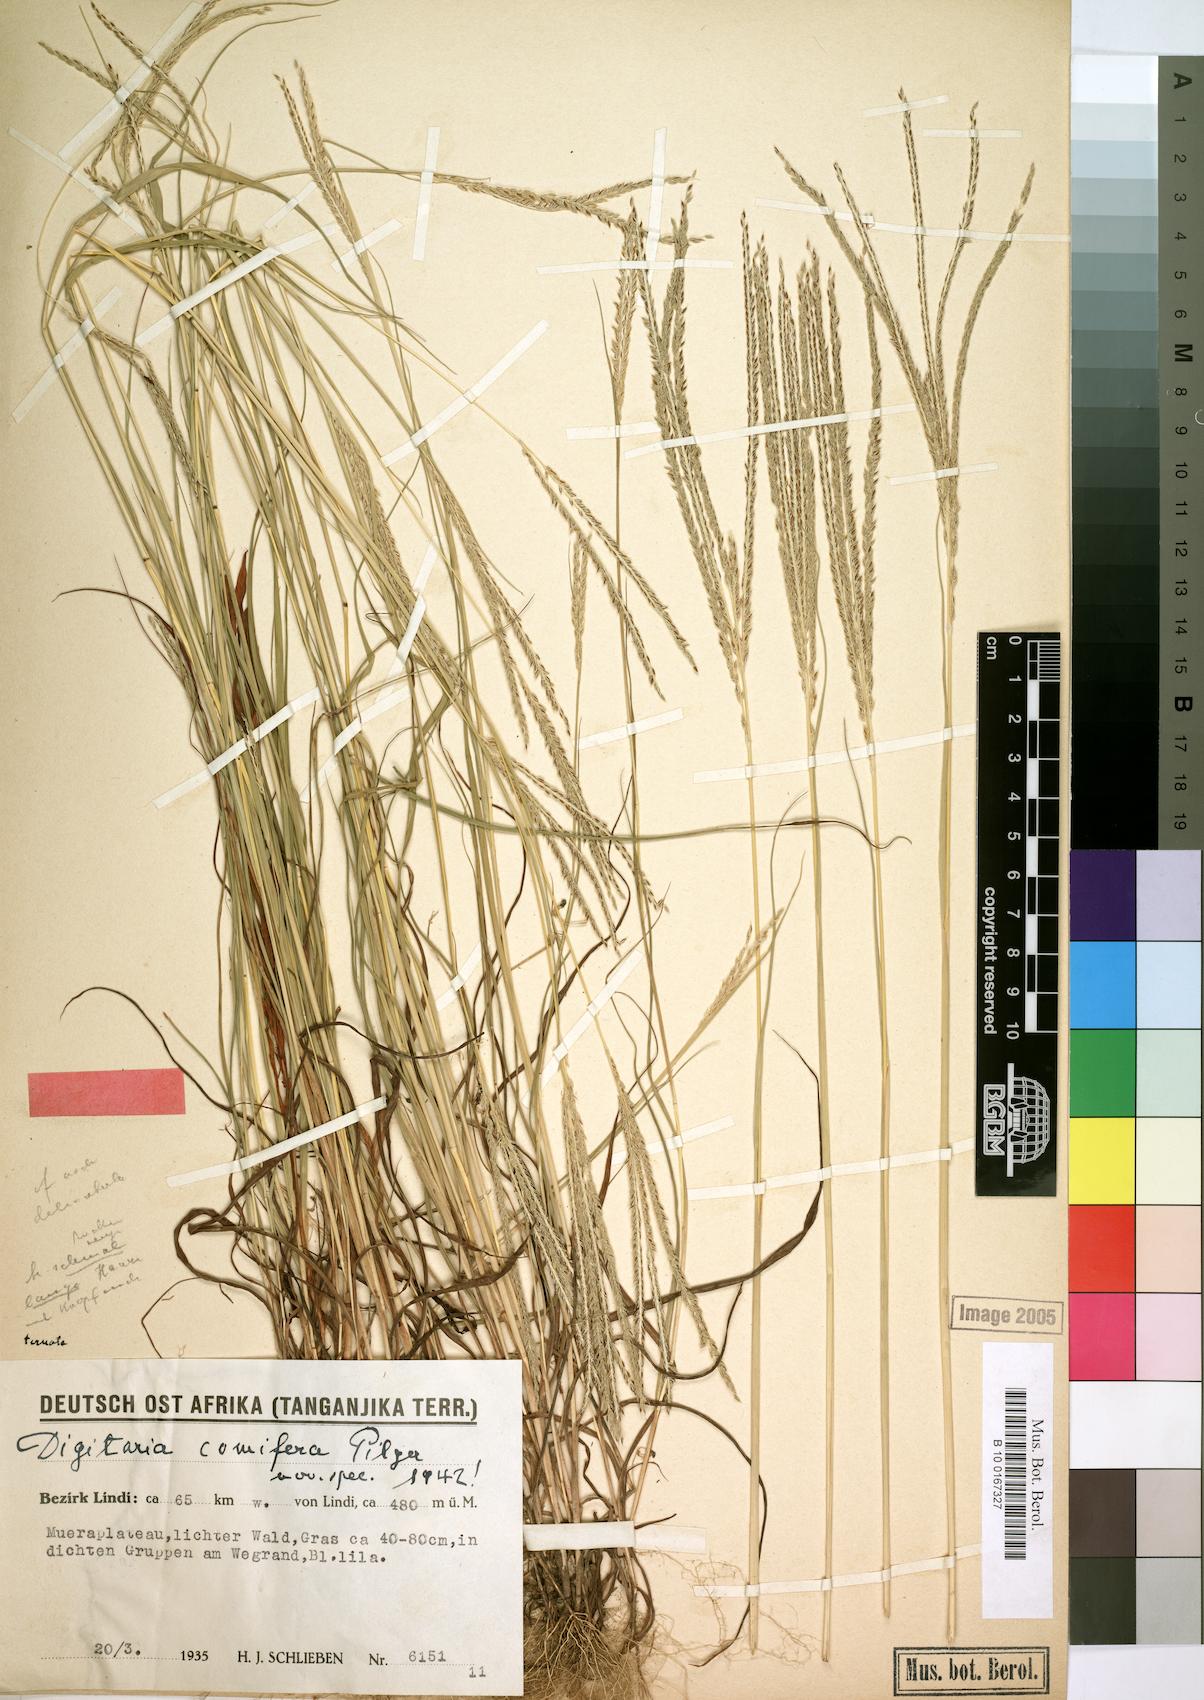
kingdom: Plantae
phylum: Tracheophyta
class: Liliopsida
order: Poales
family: Poaceae
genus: Digitaria
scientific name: Digitaria comifera
